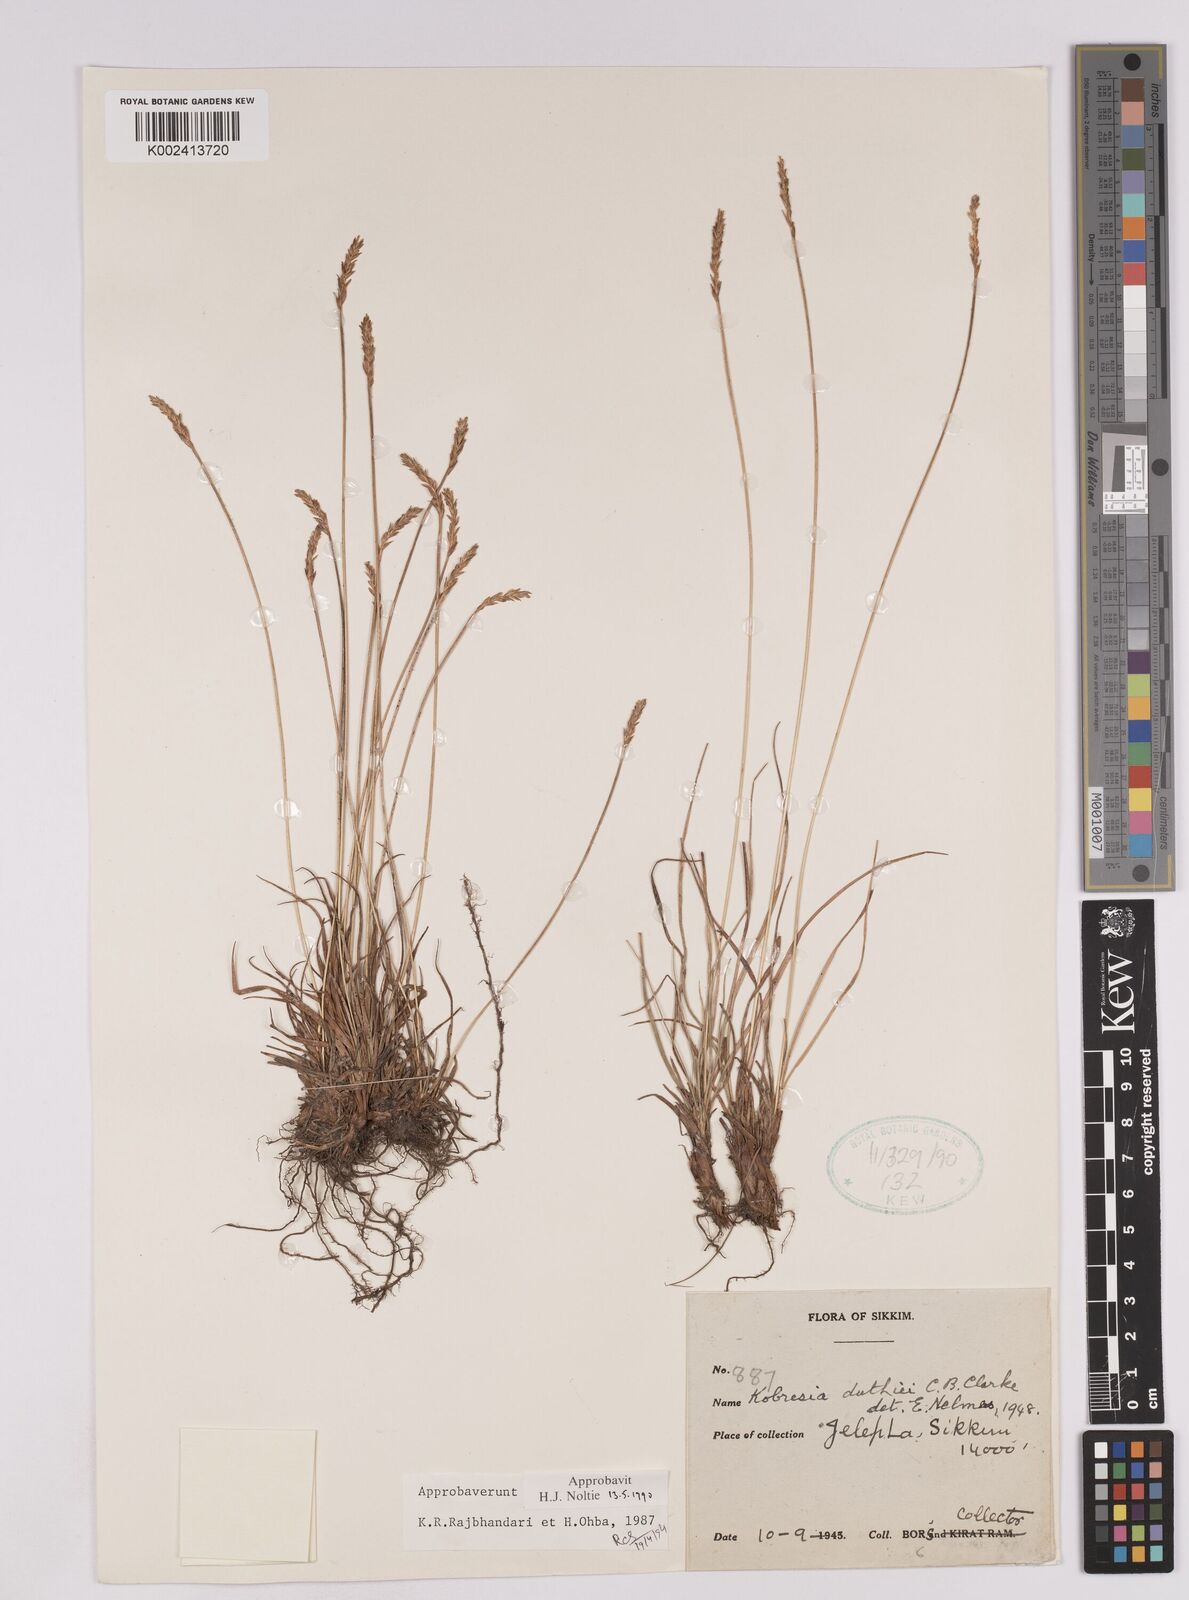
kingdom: Plantae
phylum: Tracheophyta
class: Liliopsida
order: Poales
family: Cyperaceae
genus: Carex
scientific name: Carex clavispica
